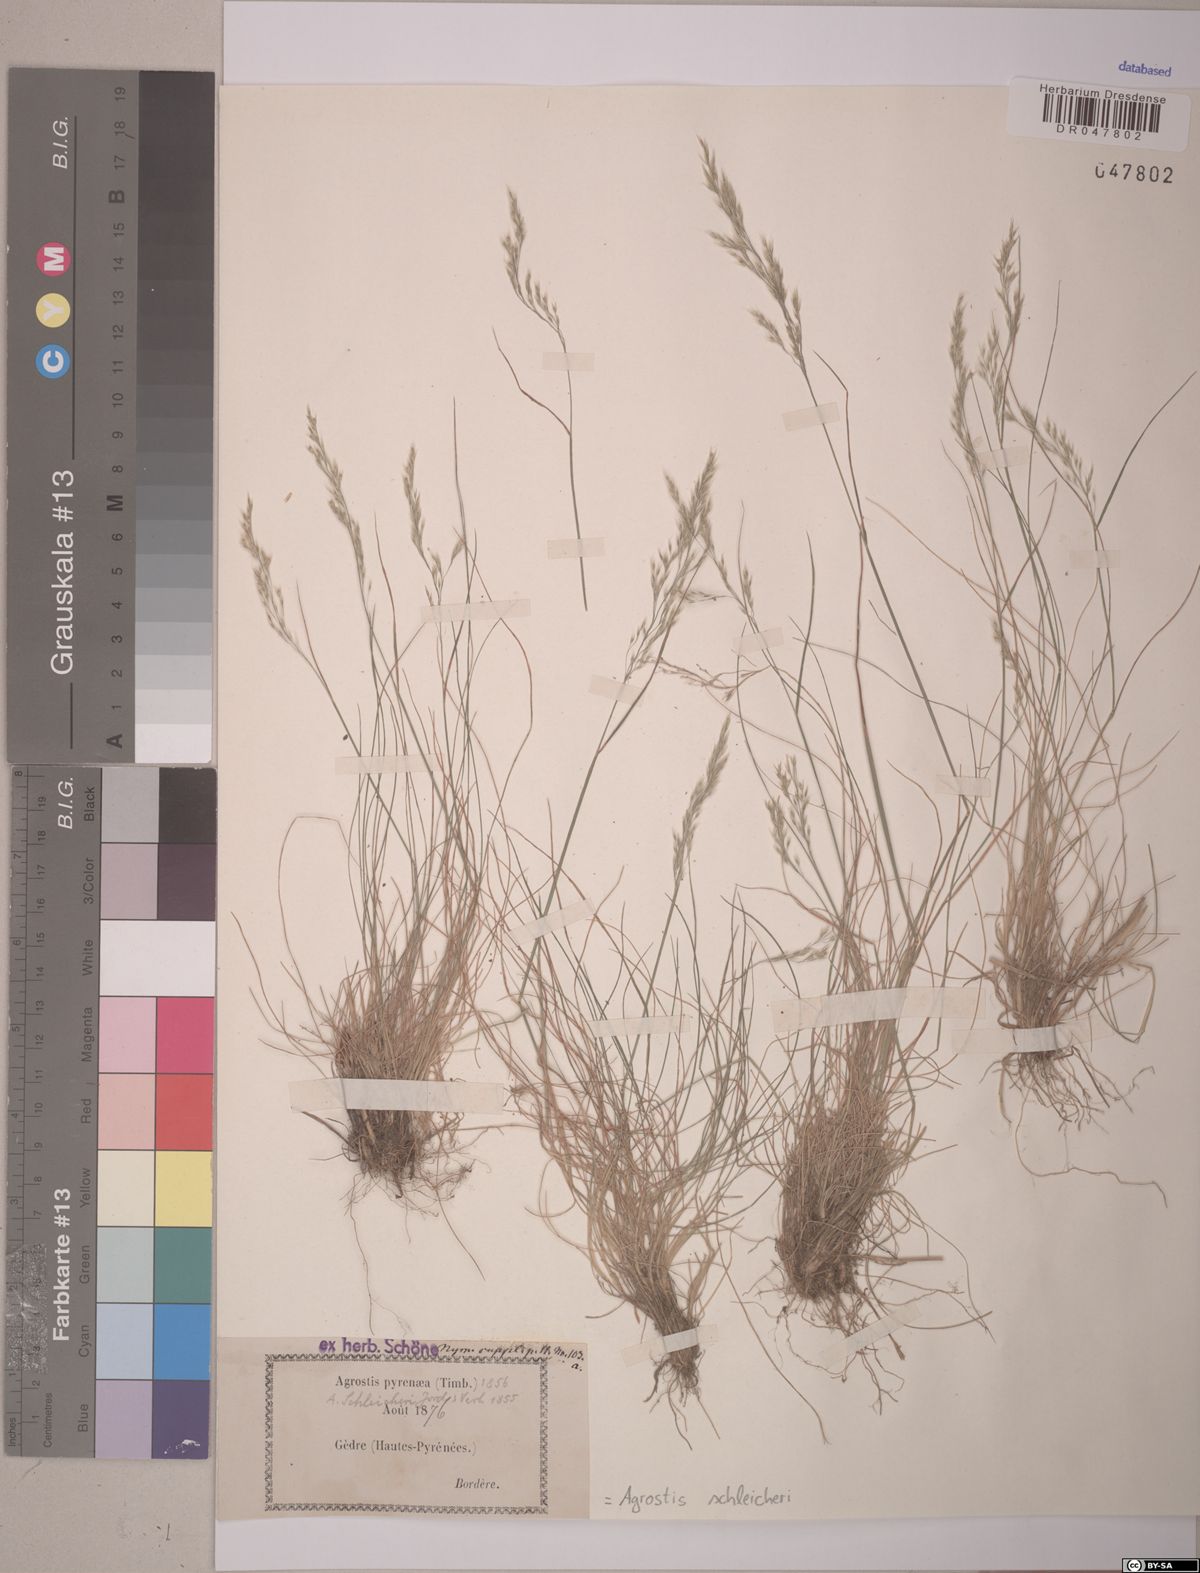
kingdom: Plantae
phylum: Tracheophyta
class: Liliopsida
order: Poales
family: Poaceae
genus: Alpagrostis
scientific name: Alpagrostis schleicheri
